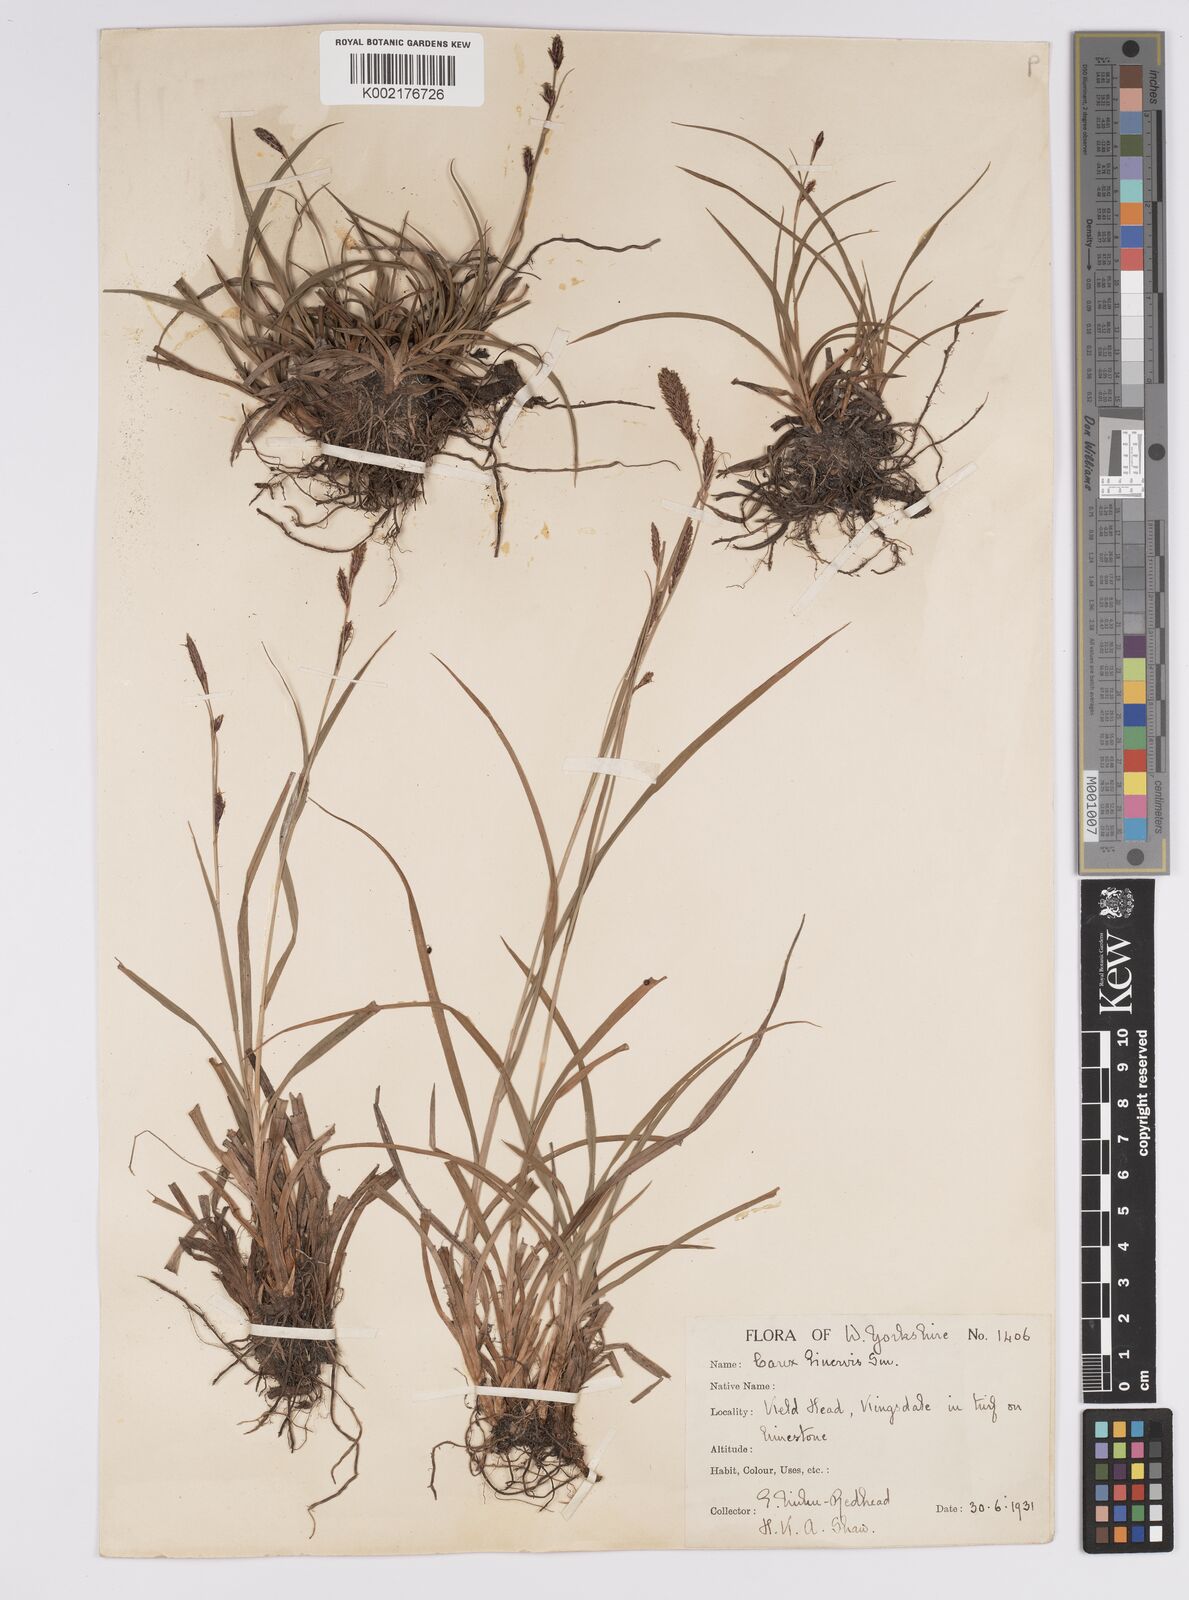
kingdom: Plantae
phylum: Tracheophyta
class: Liliopsida
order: Poales
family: Cyperaceae
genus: Carex
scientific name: Carex binervis
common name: Green-ribbed sedge
